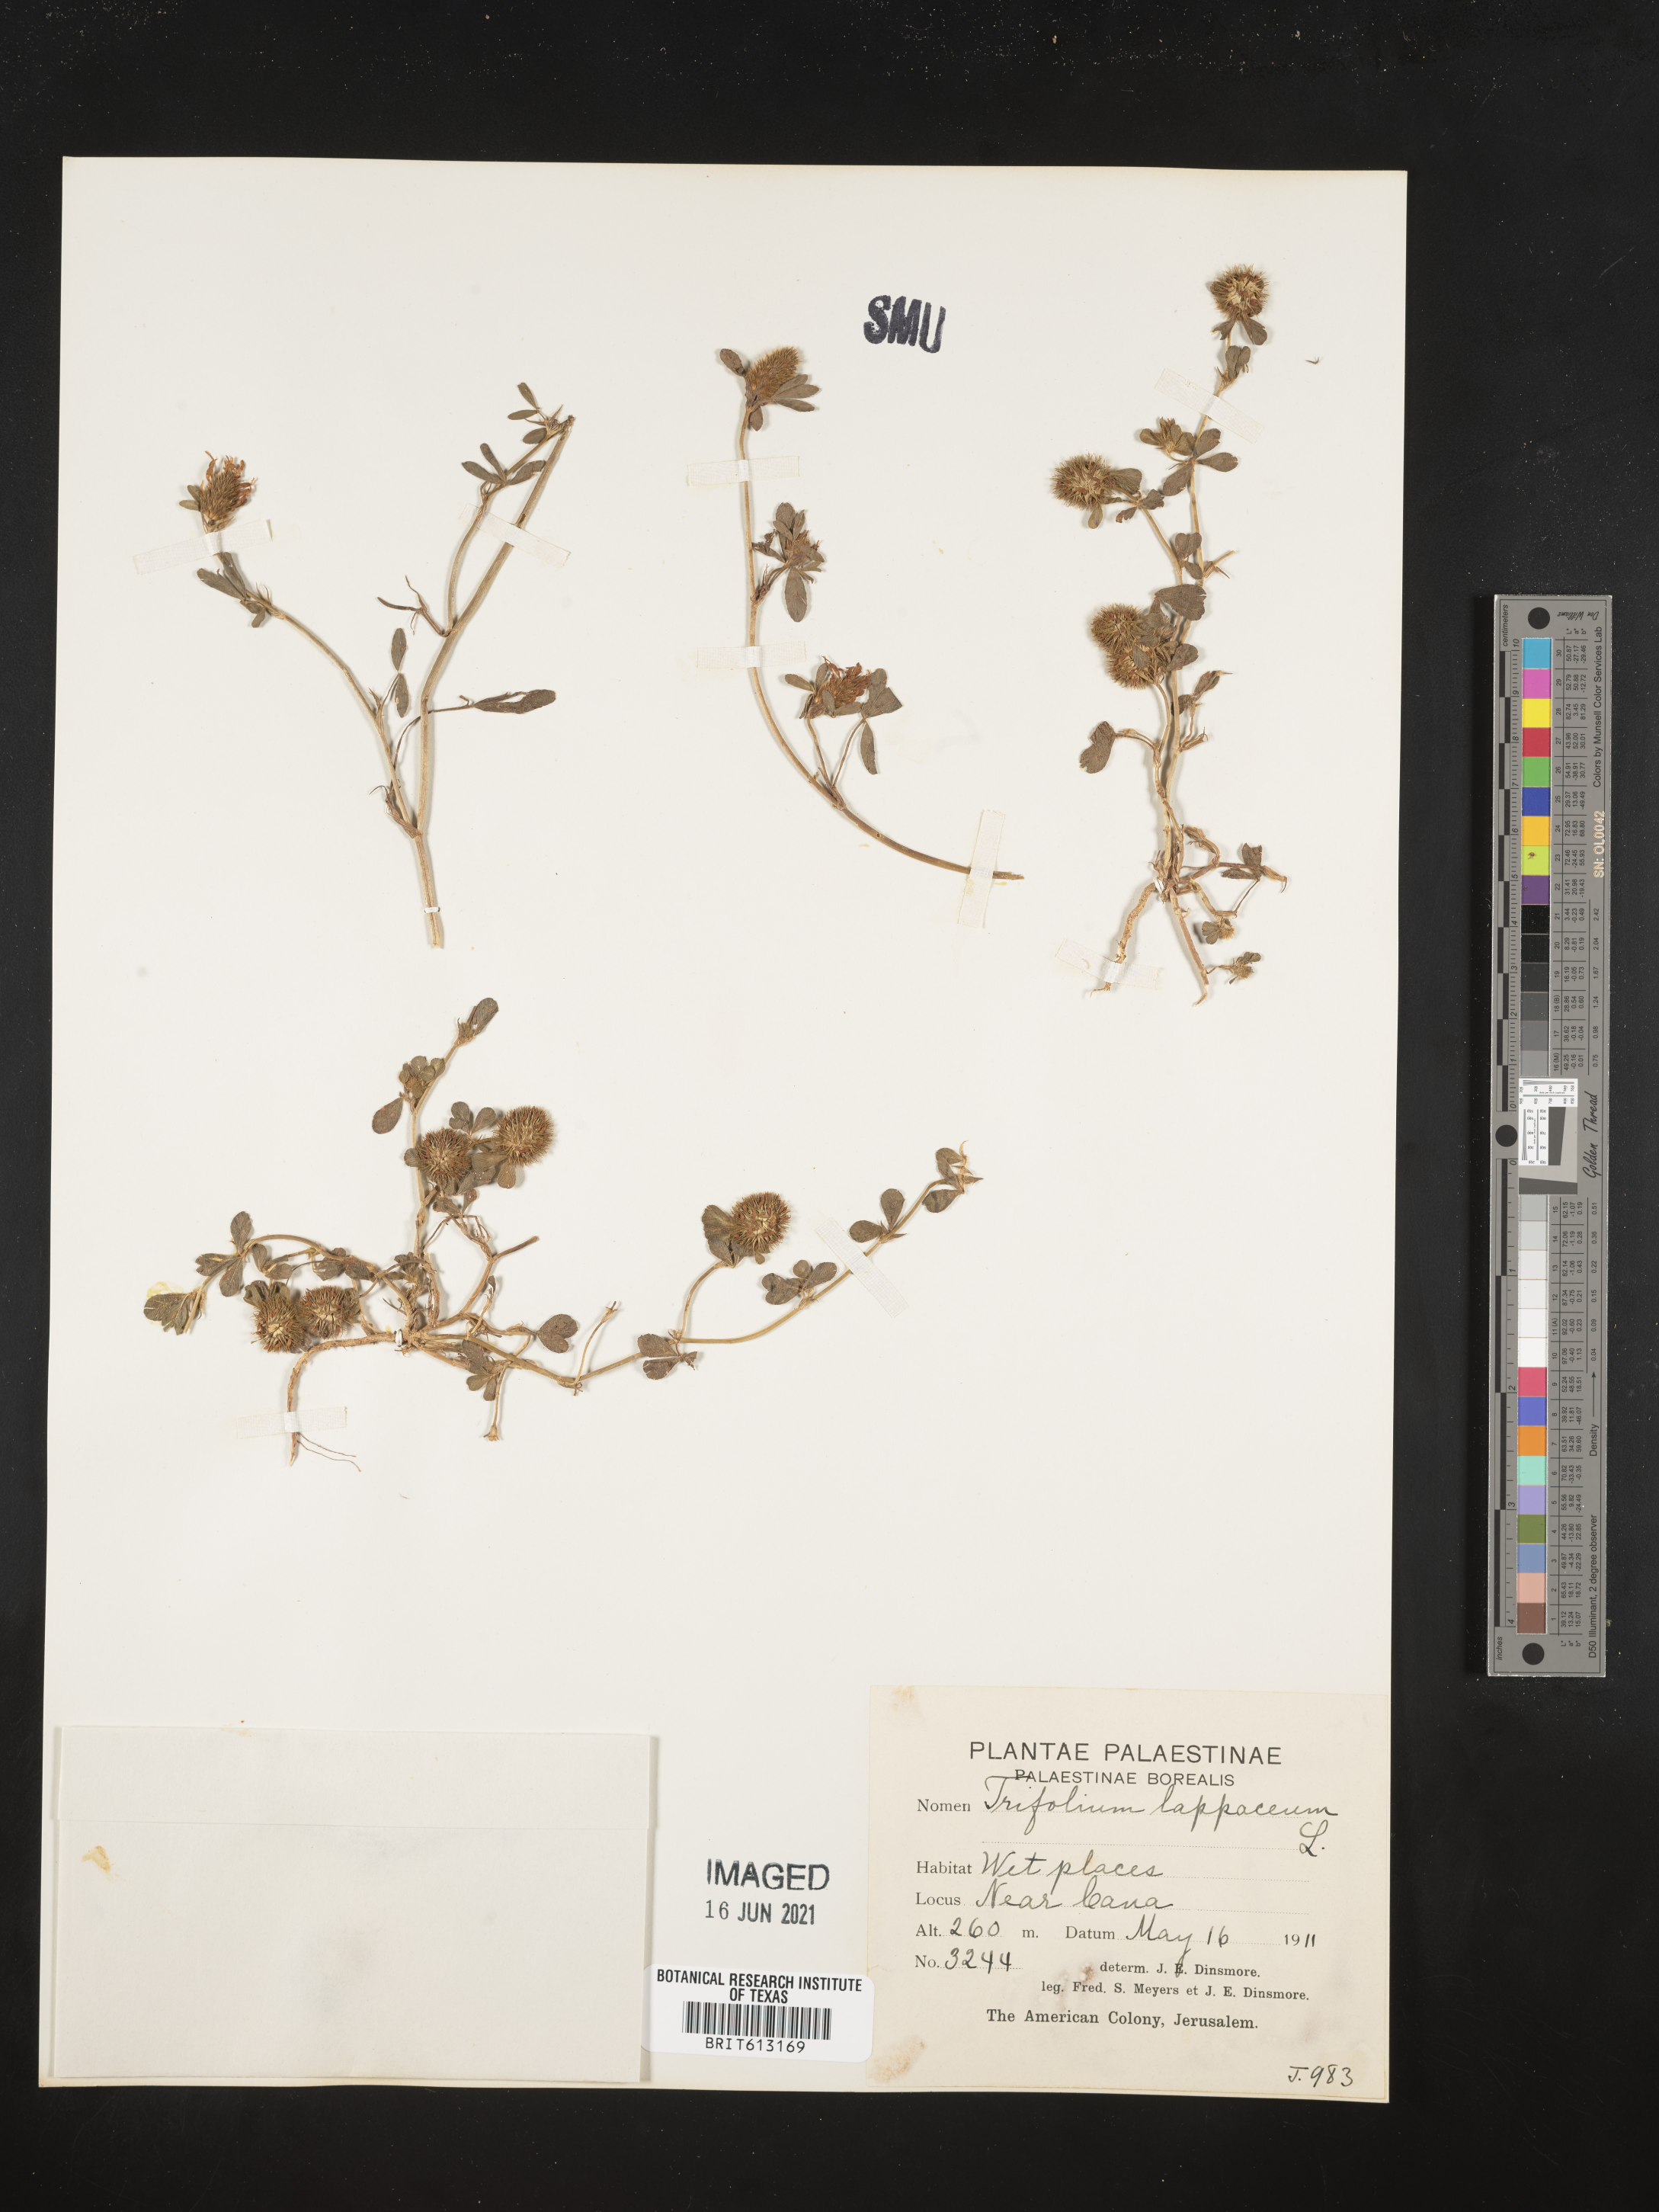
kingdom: Plantae
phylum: Tracheophyta
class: Magnoliopsida
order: Fabales
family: Fabaceae
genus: Trifolium
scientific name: Trifolium lappaceum
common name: Bur clover
